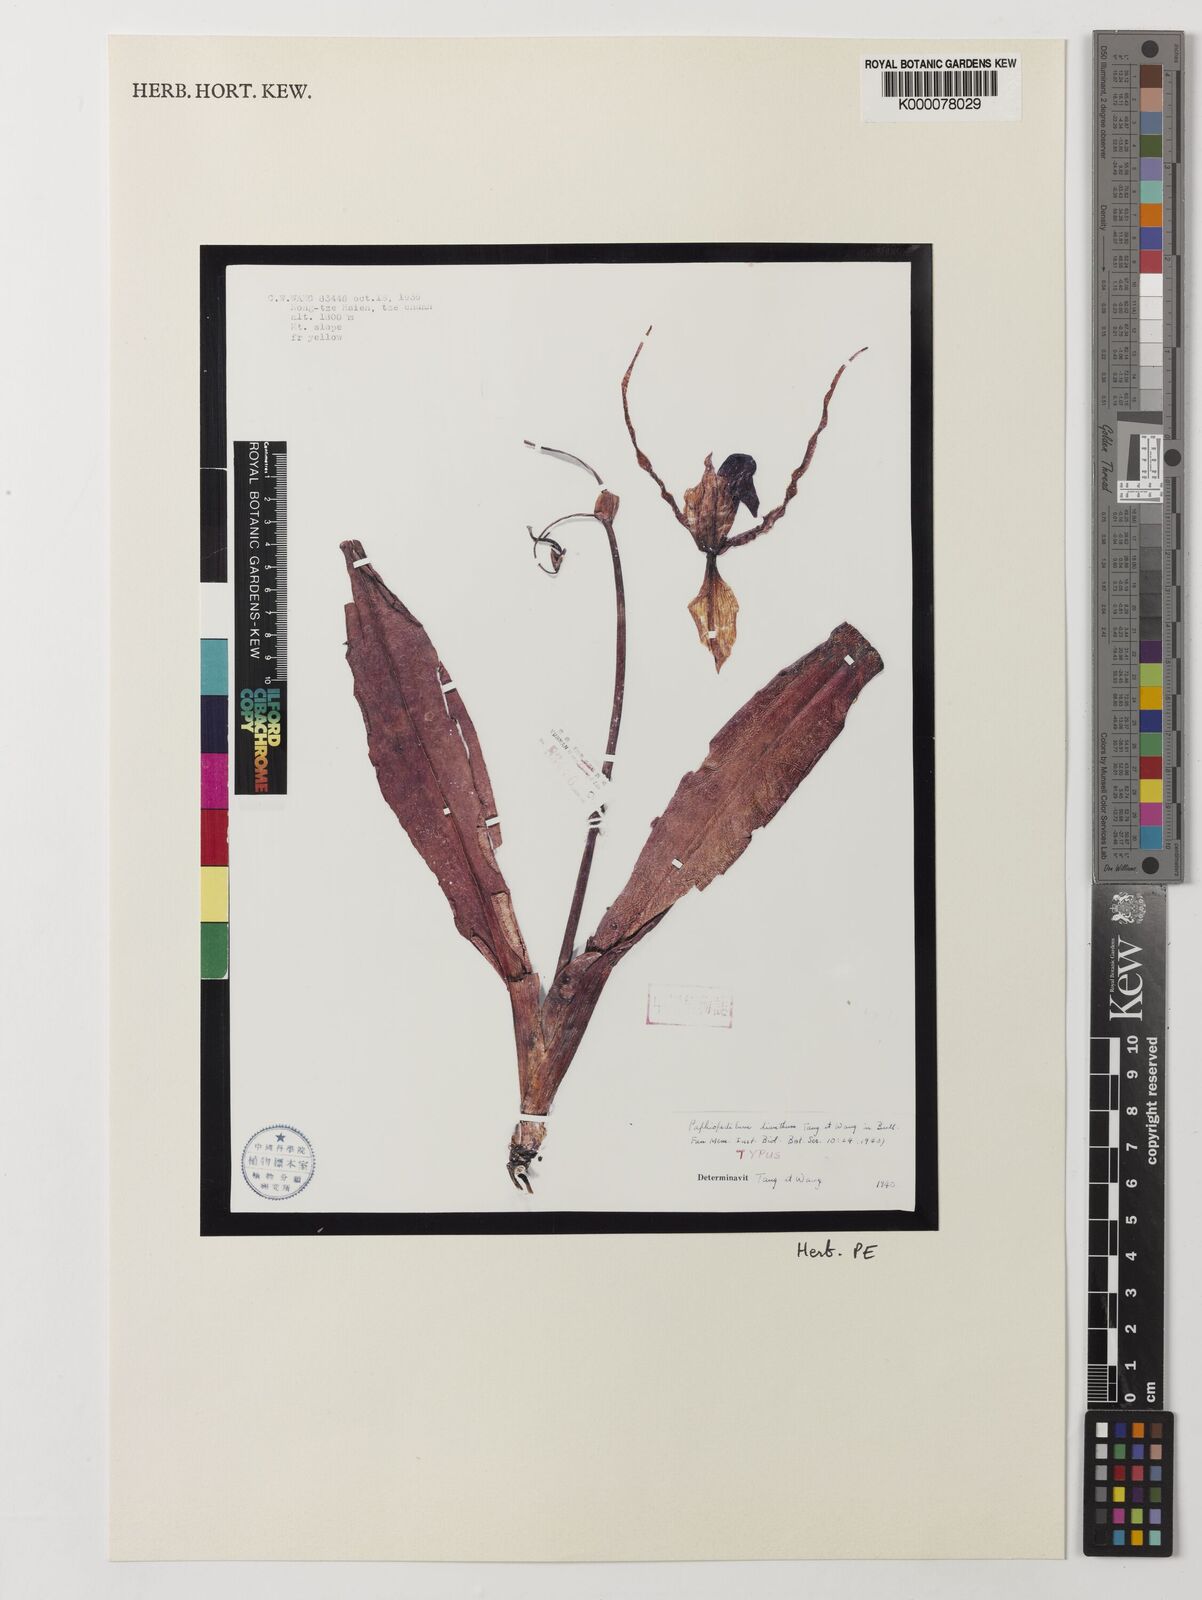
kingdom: Plantae
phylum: Tracheophyta
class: Liliopsida
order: Asparagales
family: Orchidaceae
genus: Paphiopedilum
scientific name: Paphiopedilum dianthum
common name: Double flowered paphiopedilum
